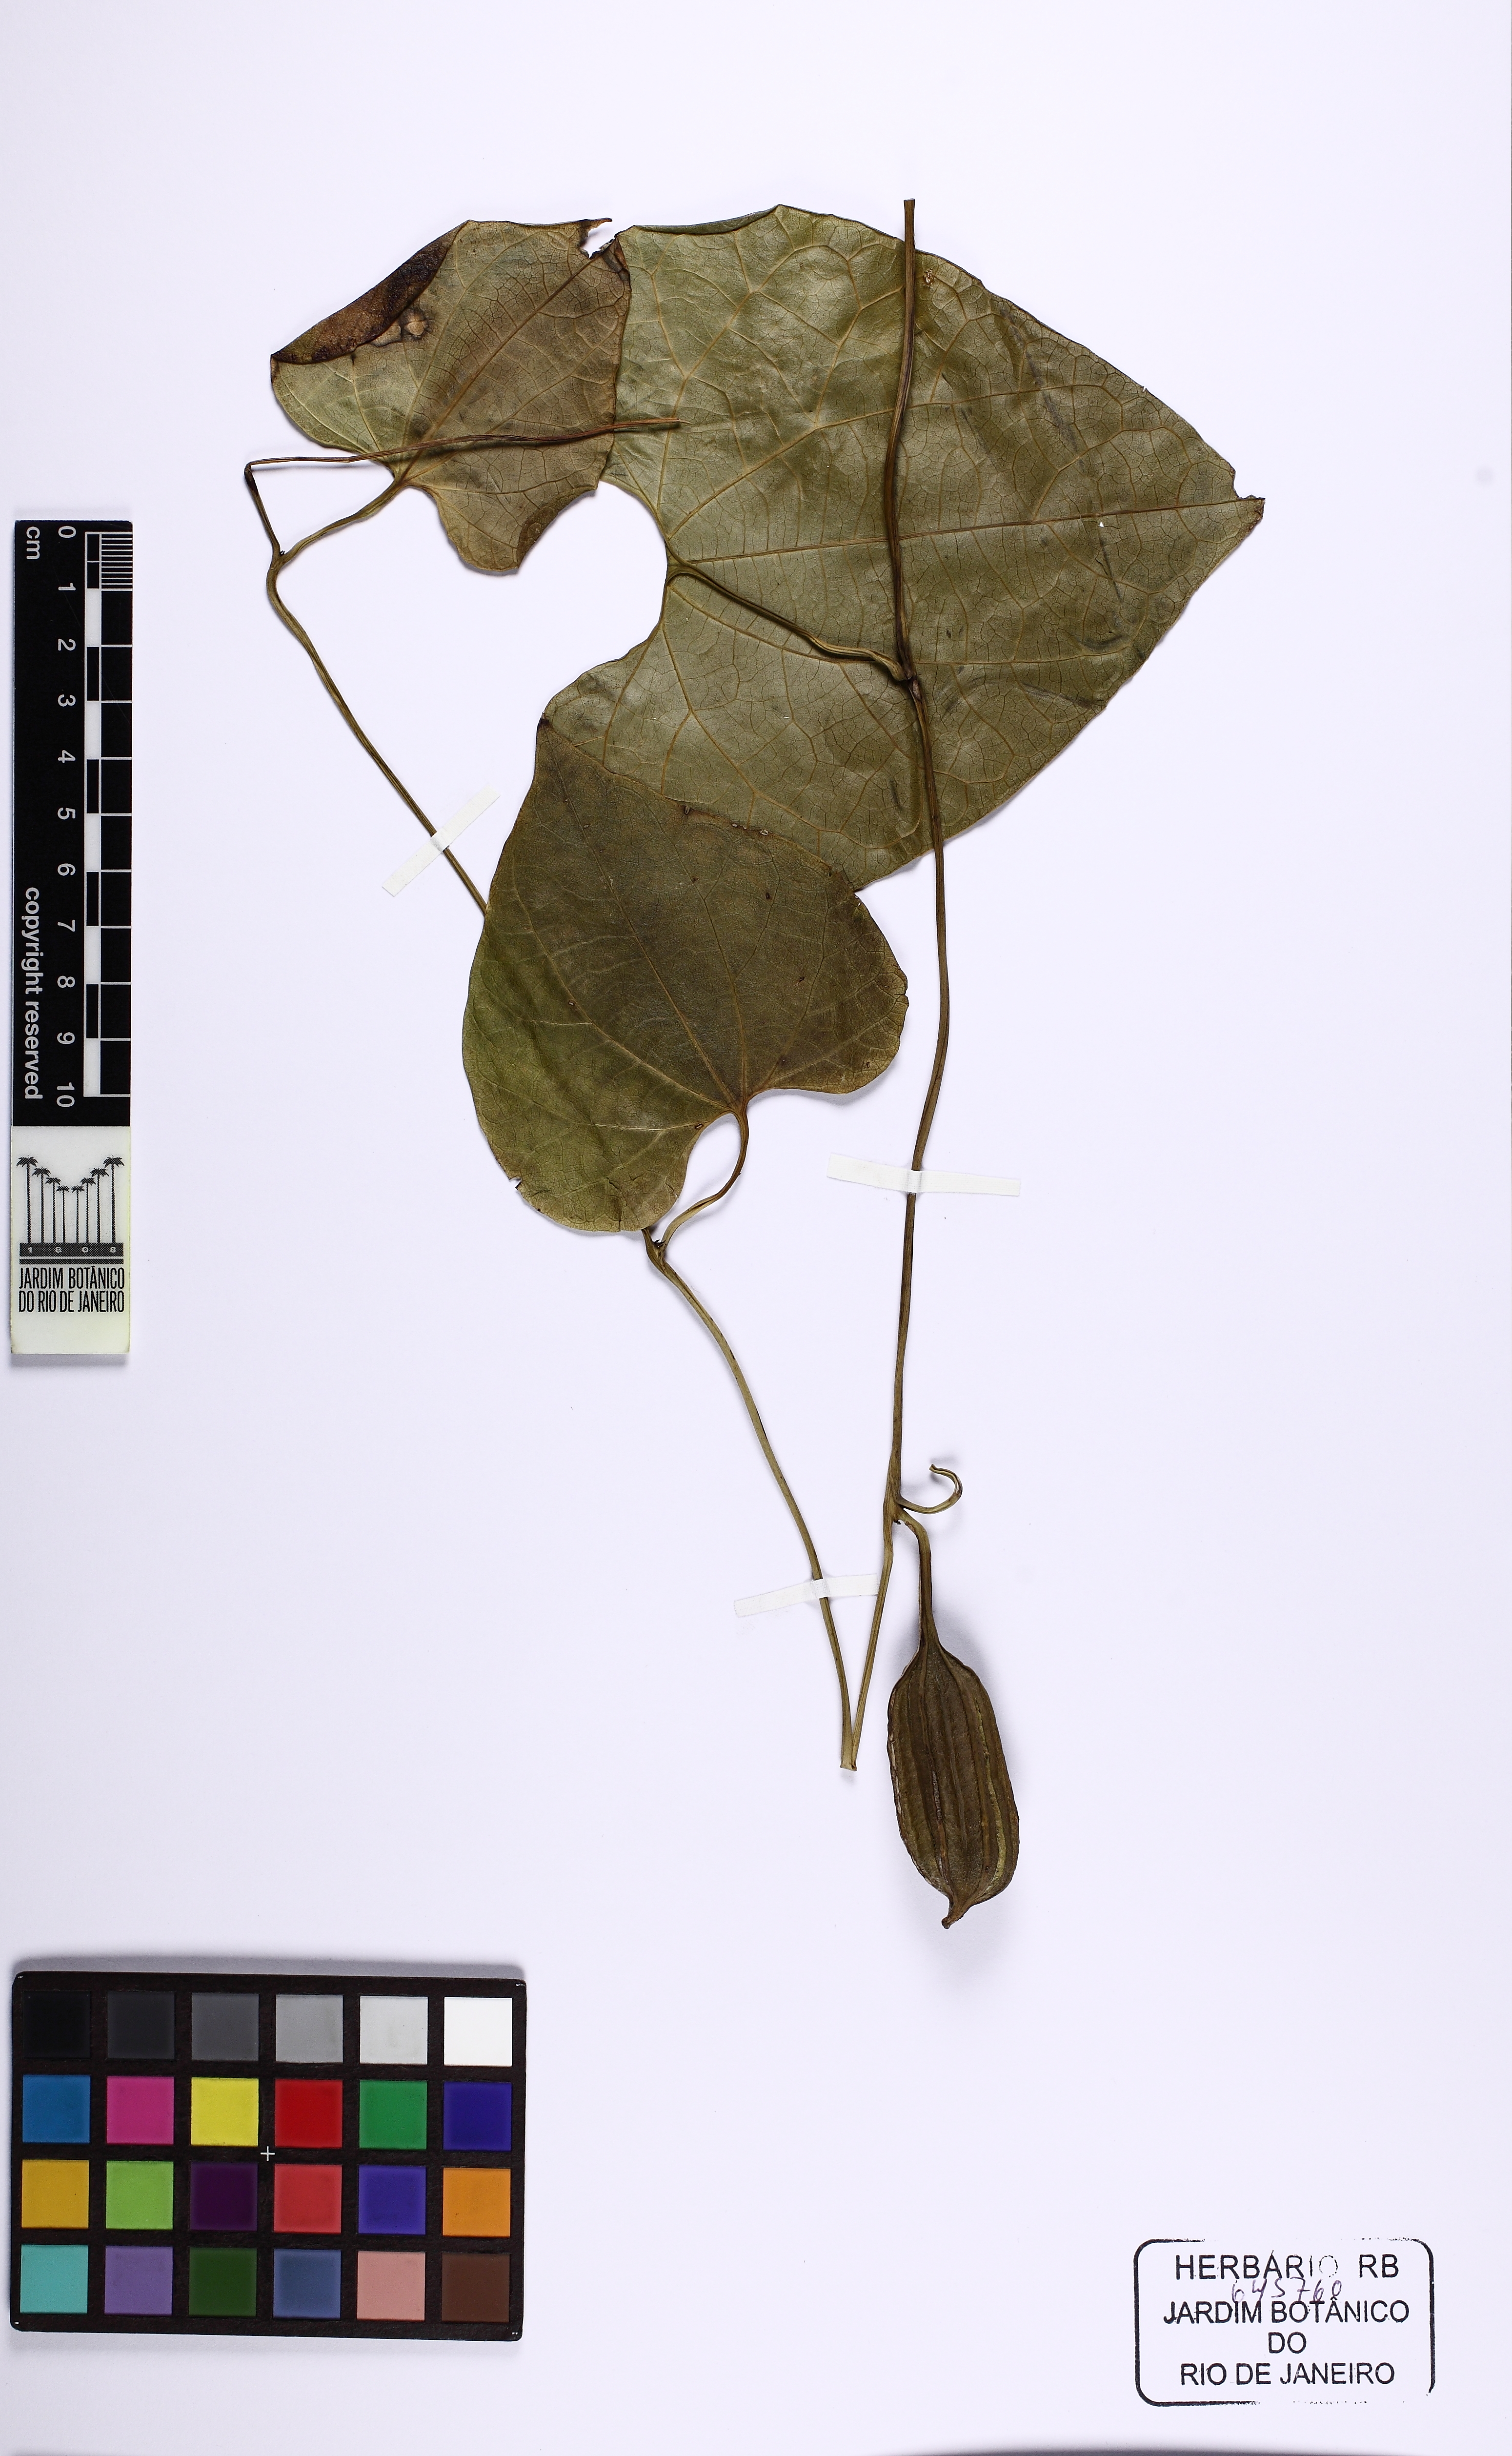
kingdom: Plantae
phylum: Tracheophyta
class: Magnoliopsida
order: Piperales
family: Aristolochiaceae
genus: Aristolochia
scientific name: Aristolochia tamnifolia
